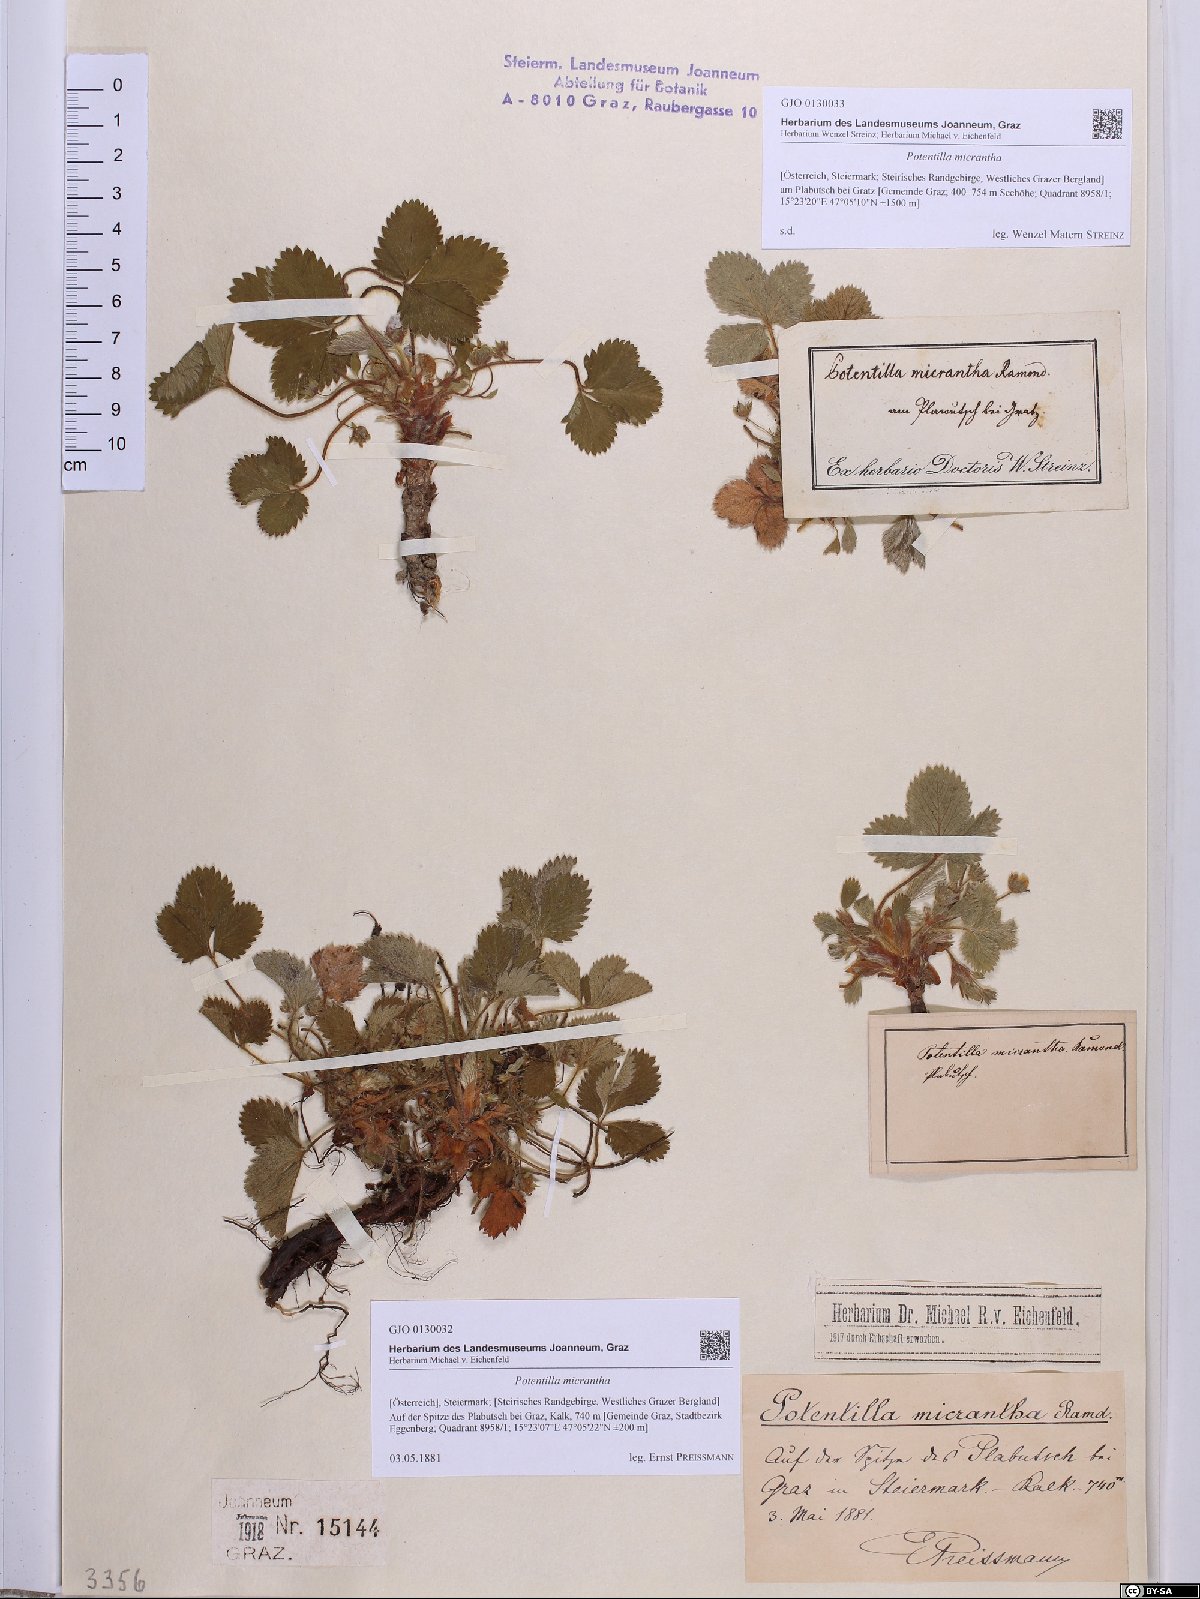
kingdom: Plantae
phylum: Tracheophyta
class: Magnoliopsida
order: Rosales
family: Rosaceae
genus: Potentilla
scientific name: Potentilla micrantha
